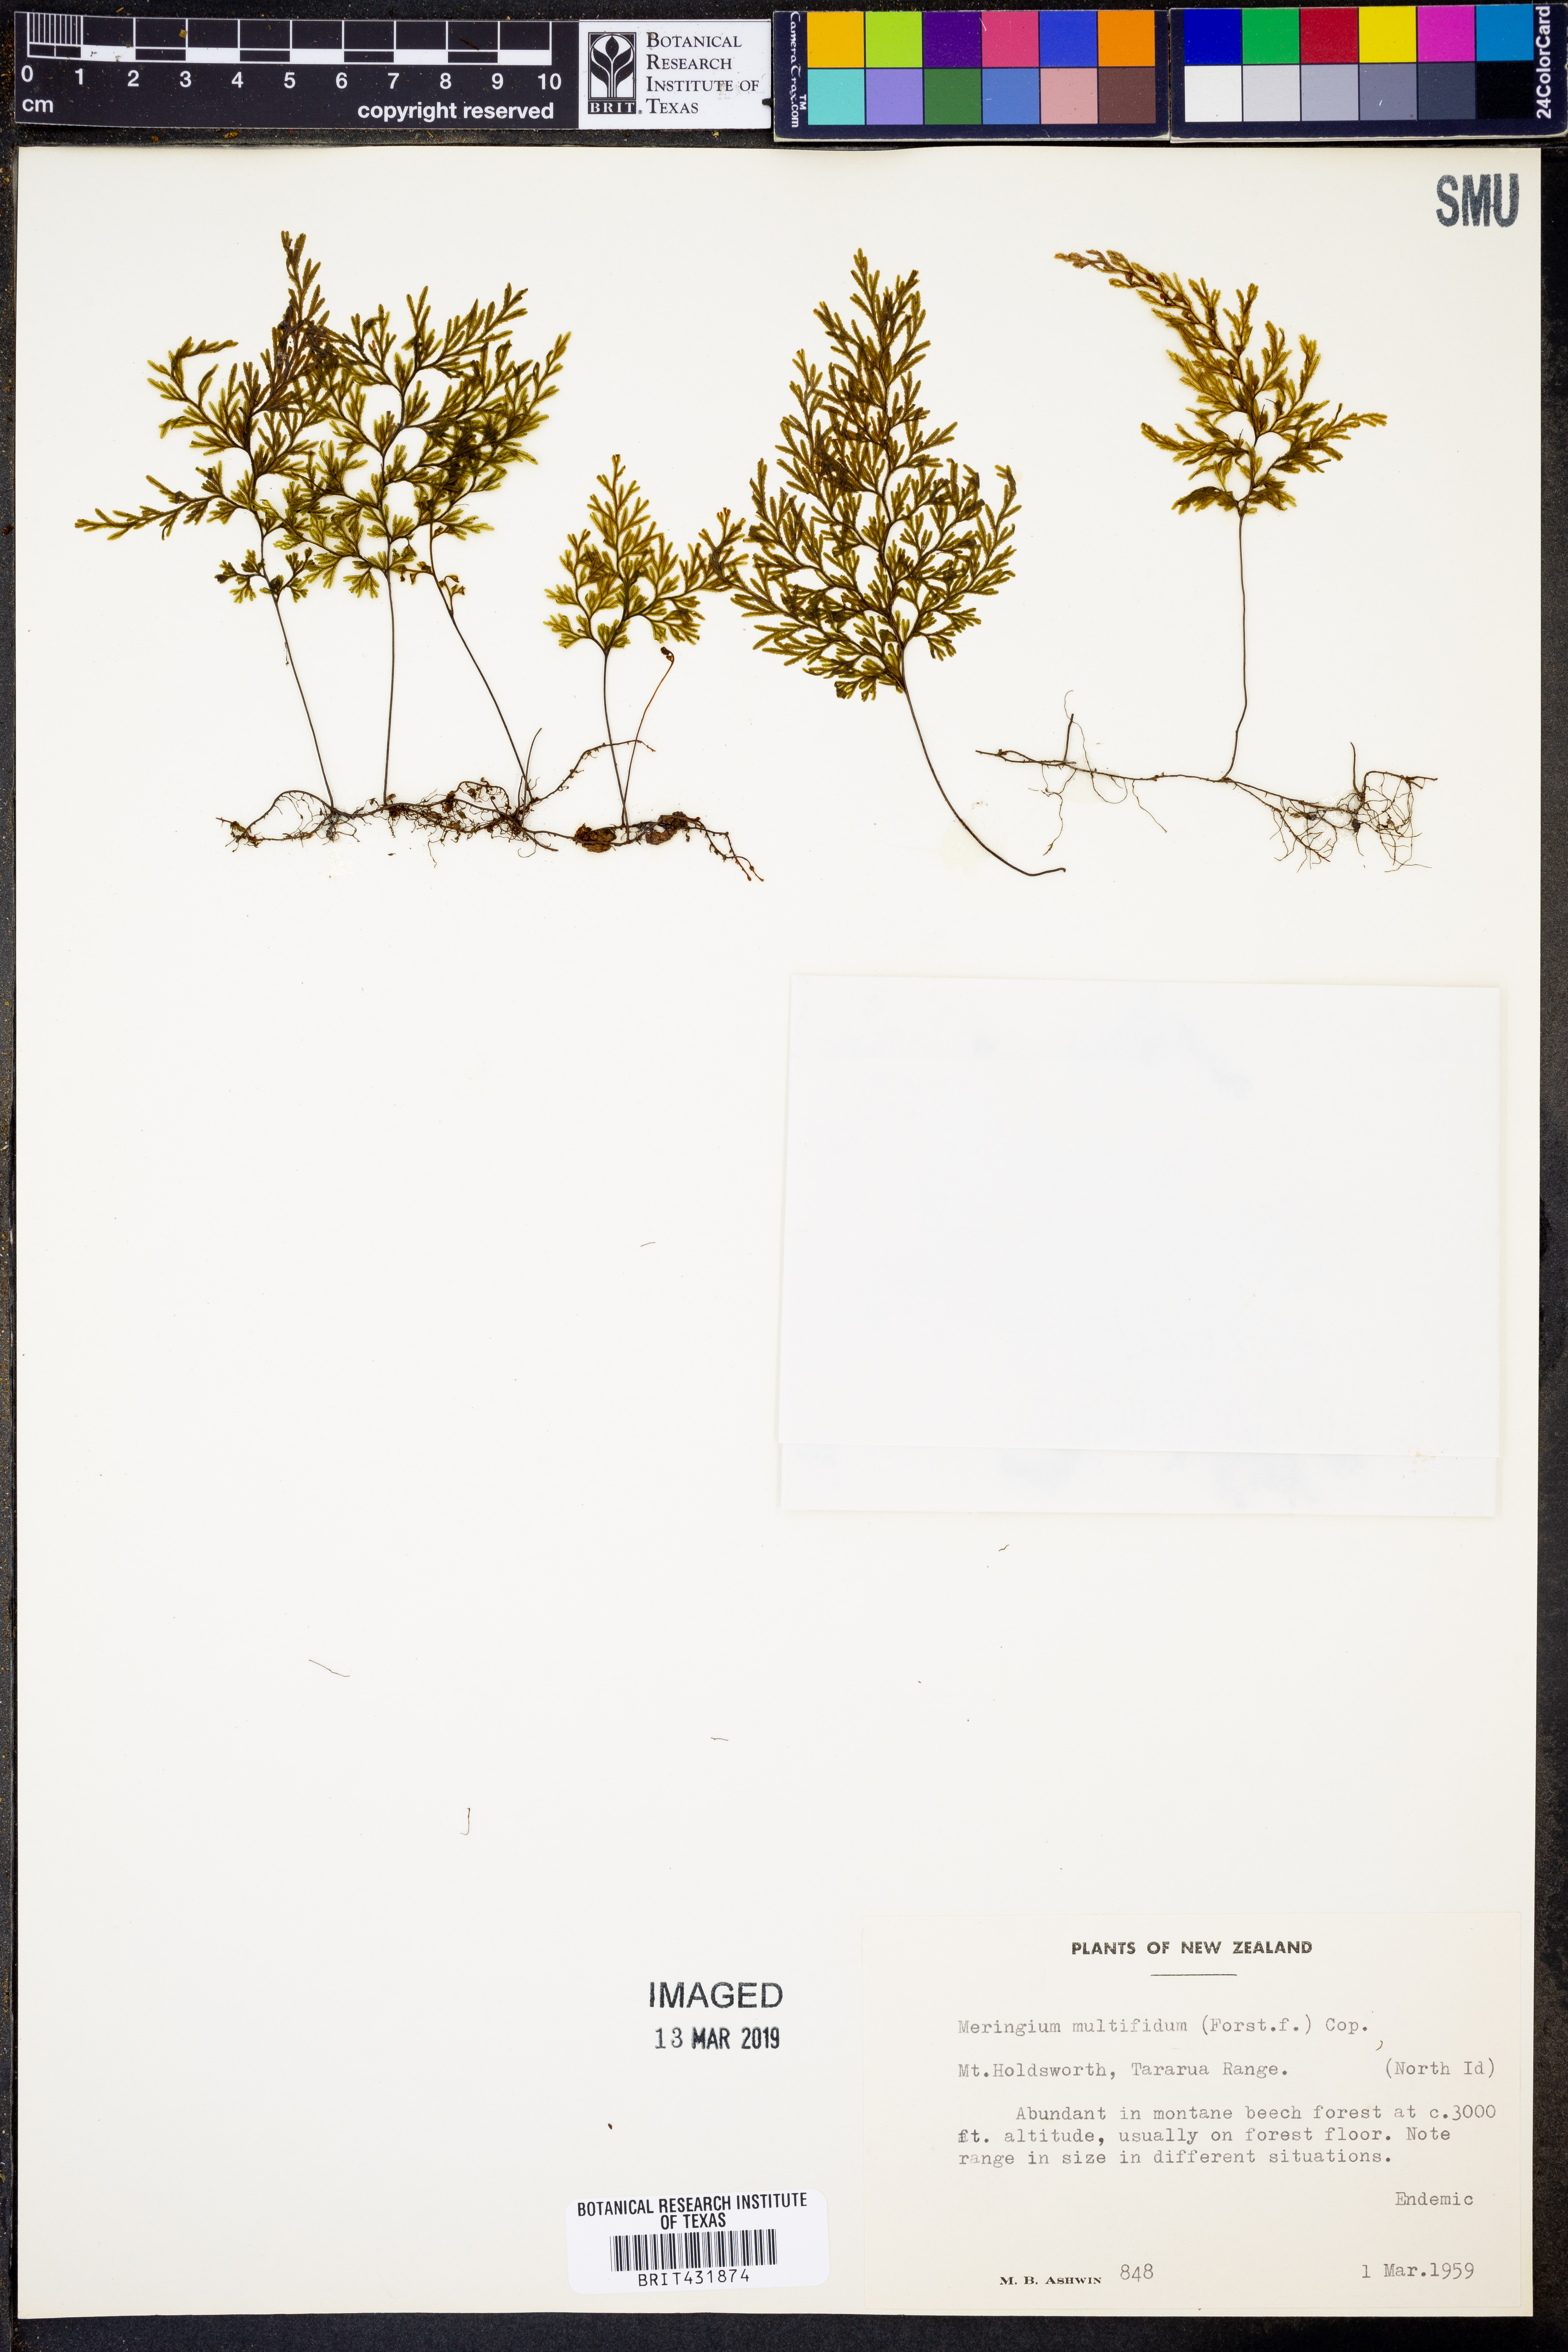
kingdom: Plantae
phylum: Tracheophyta
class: Polypodiopsida
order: Hymenophyllales
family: Hymenophyllaceae
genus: Hymenophyllum
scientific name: Hymenophyllum multifidum
